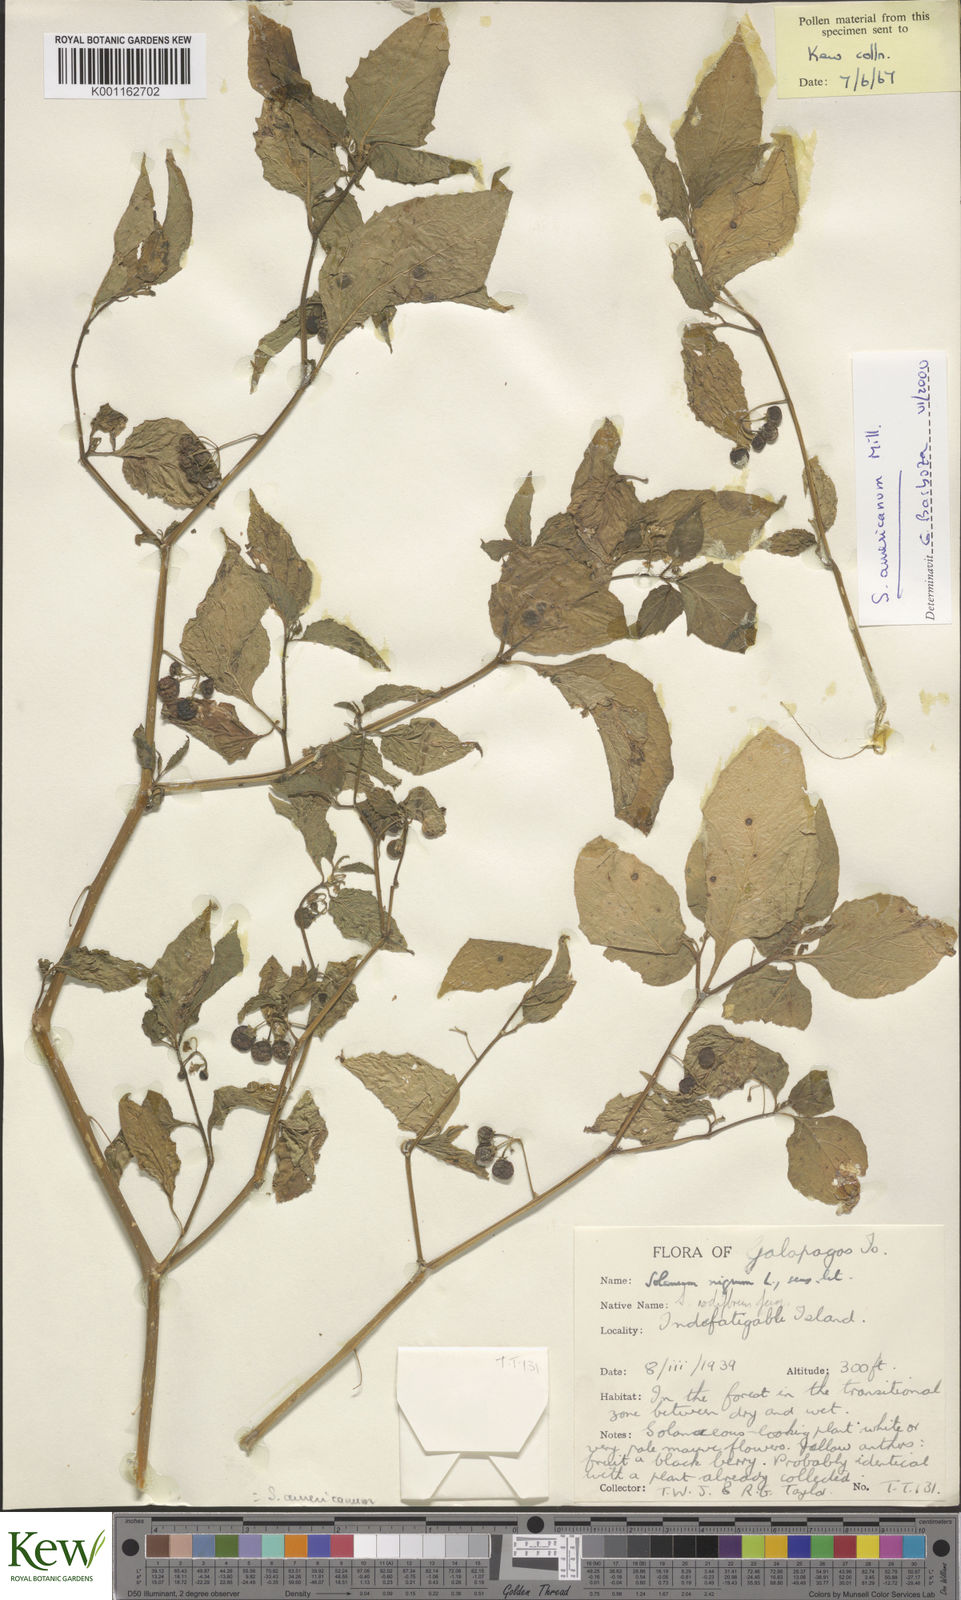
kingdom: Plantae
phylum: Tracheophyta
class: Magnoliopsida
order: Solanales
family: Solanaceae
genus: Solanum
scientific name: Solanum americanum
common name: American black nightshade
